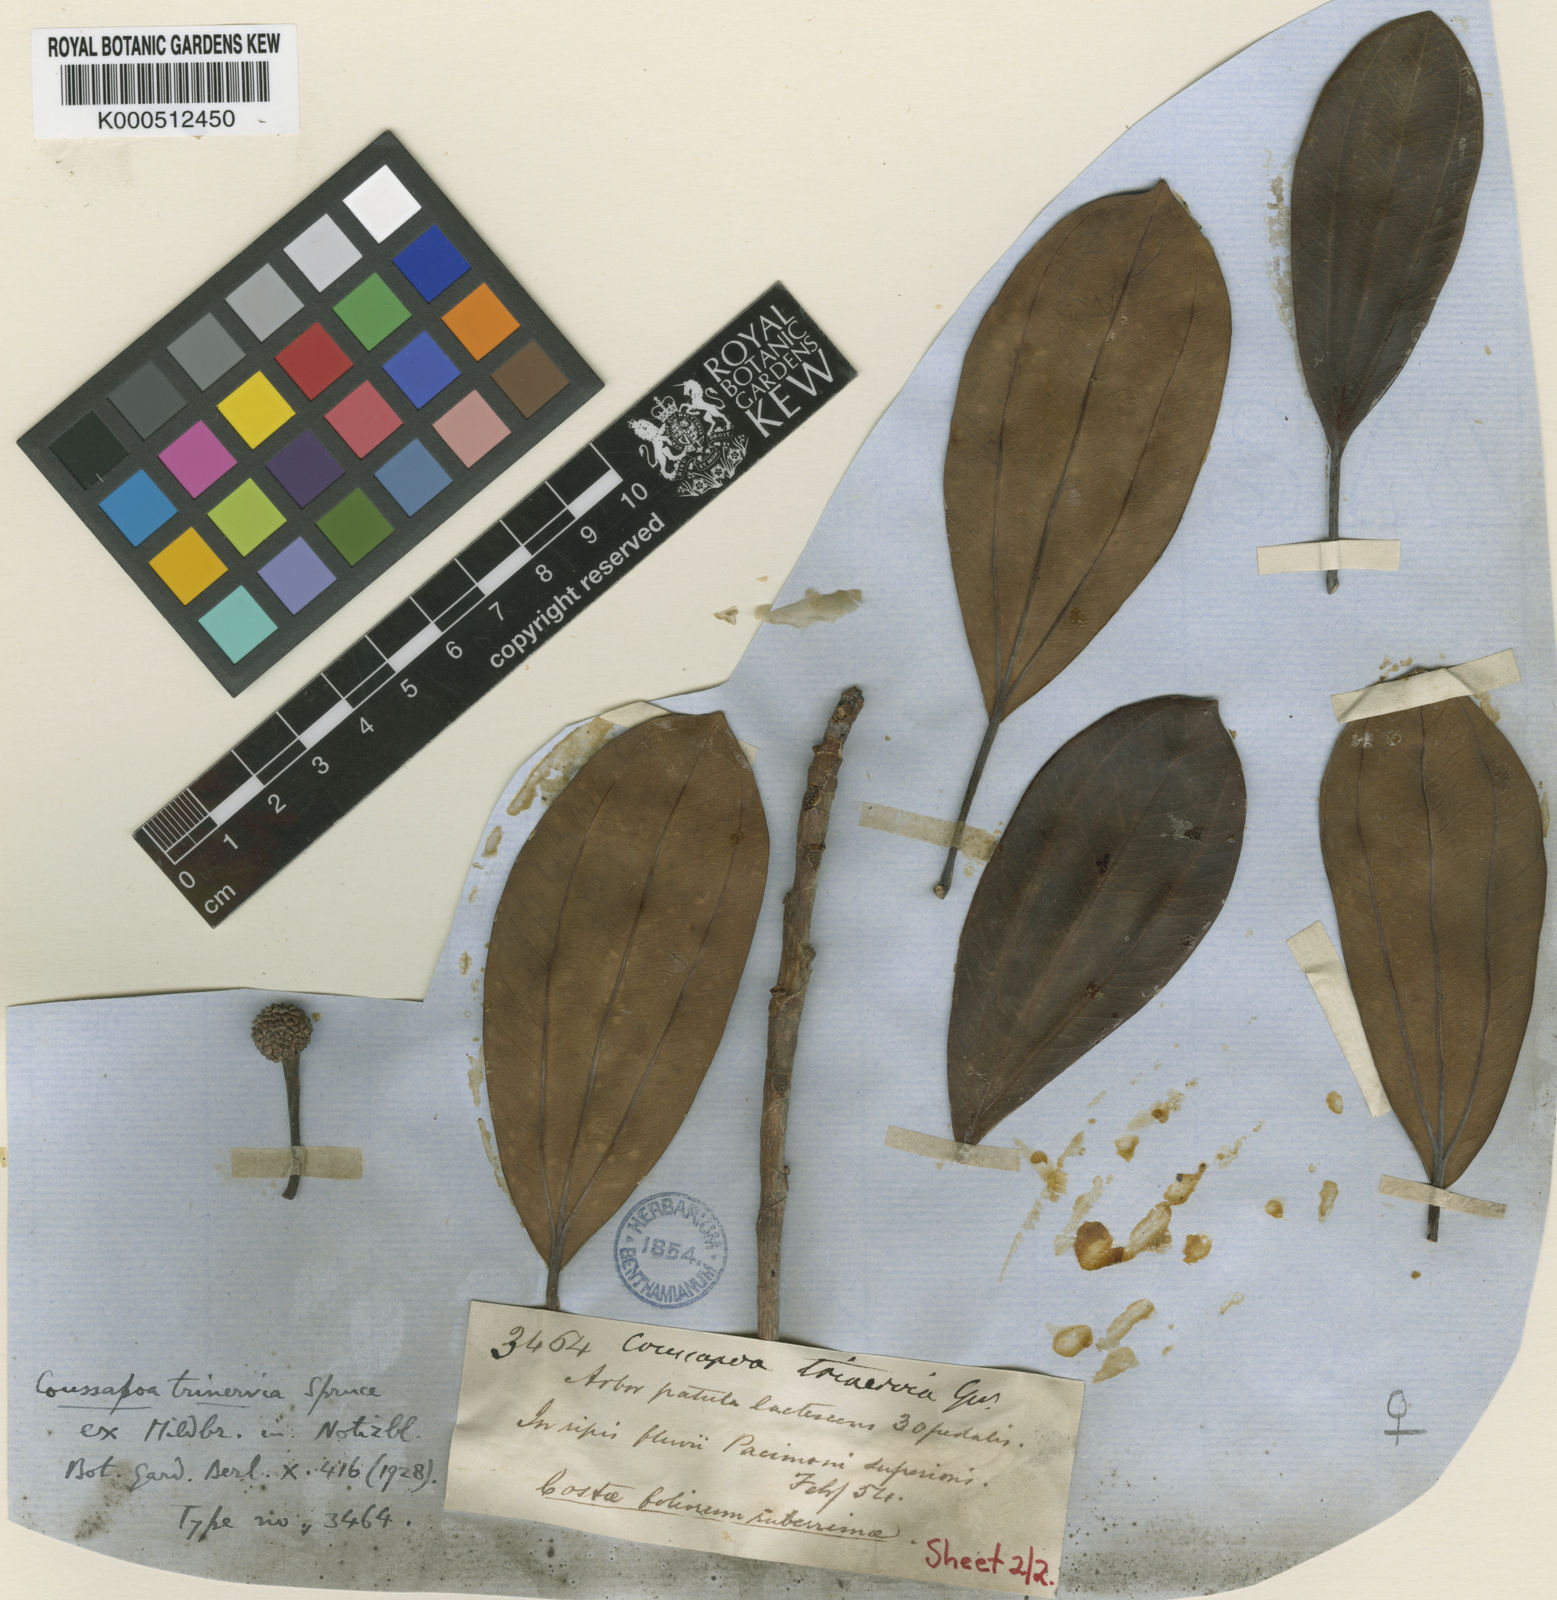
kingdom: Plantae
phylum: Tracheophyta
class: Magnoliopsida
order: Rosales
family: Urticaceae
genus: Coussapoa
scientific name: Coussapoa trinervia
